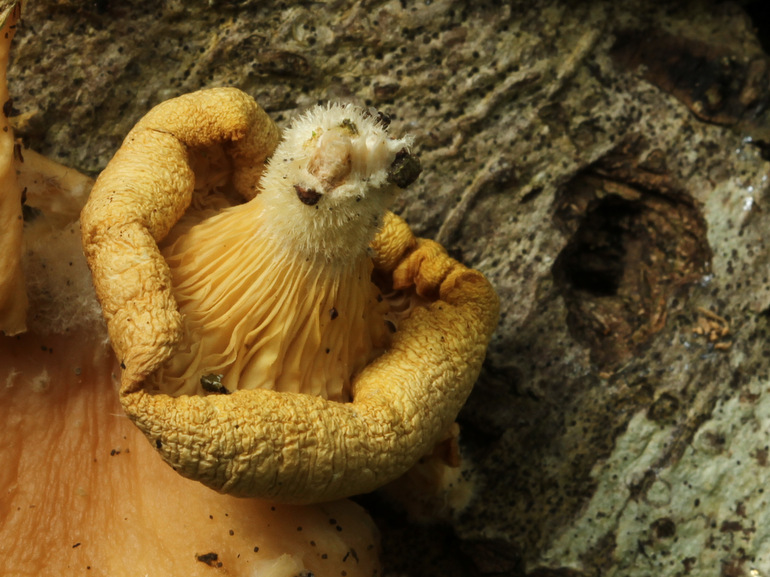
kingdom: Fungi
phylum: Basidiomycota
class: Agaricomycetes
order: Agaricales
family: Pleurotaceae
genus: Pleurotus
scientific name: Pleurotus pulmonarius
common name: sommer-østershat
